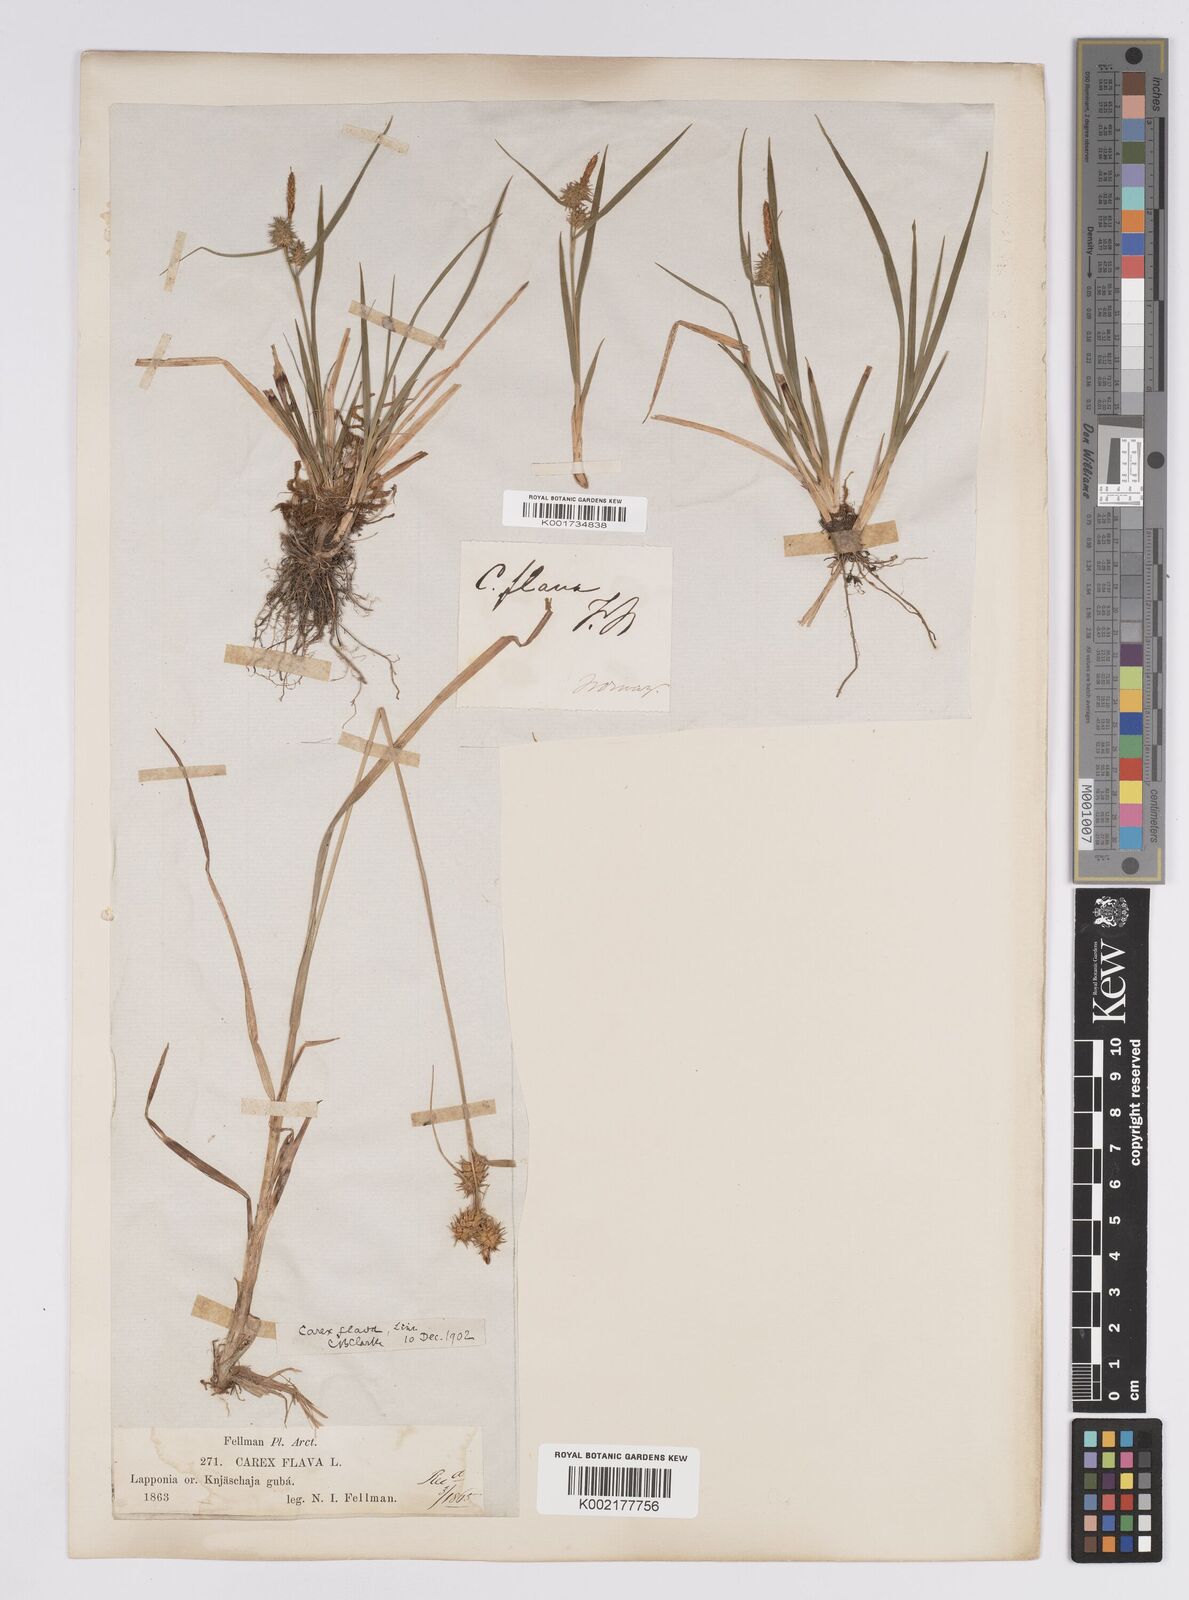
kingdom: Plantae
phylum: Tracheophyta
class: Liliopsida
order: Poales
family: Cyperaceae
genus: Carex
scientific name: Carex flava
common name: Large yellow-sedge
